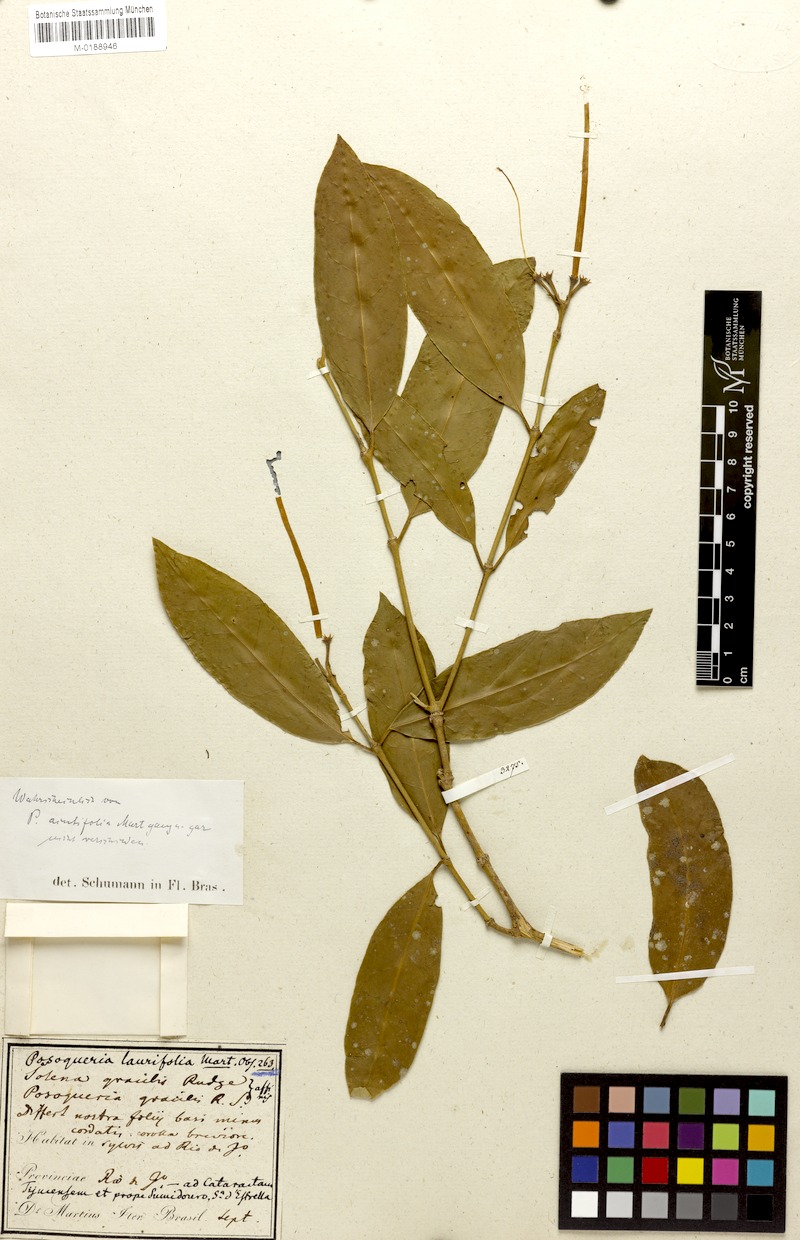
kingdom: Plantae
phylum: Tracheophyta
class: Magnoliopsida
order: Gentianales
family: Rubiaceae
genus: Posoqueria
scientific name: Posoqueria laurifolia
